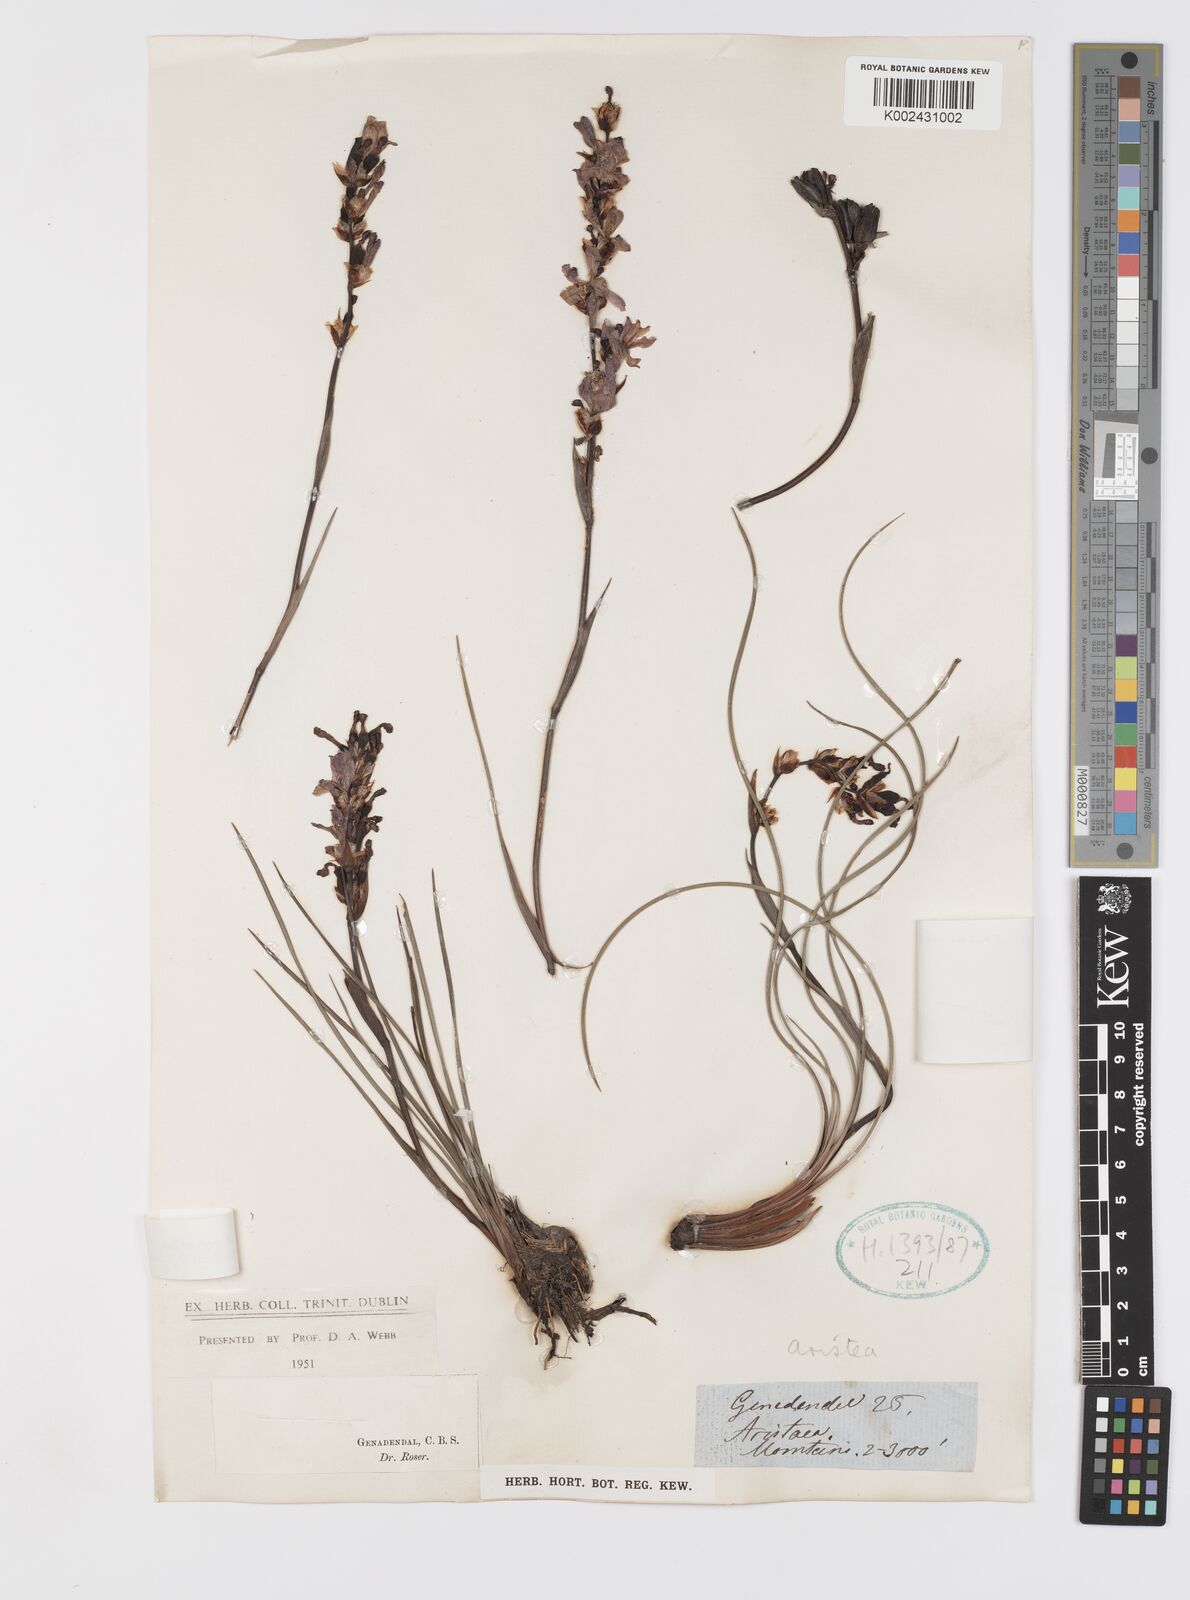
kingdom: Plantae
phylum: Tracheophyta
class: Liliopsida
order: Asparagales
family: Iridaceae
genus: Aristea
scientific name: Aristea racemosa
